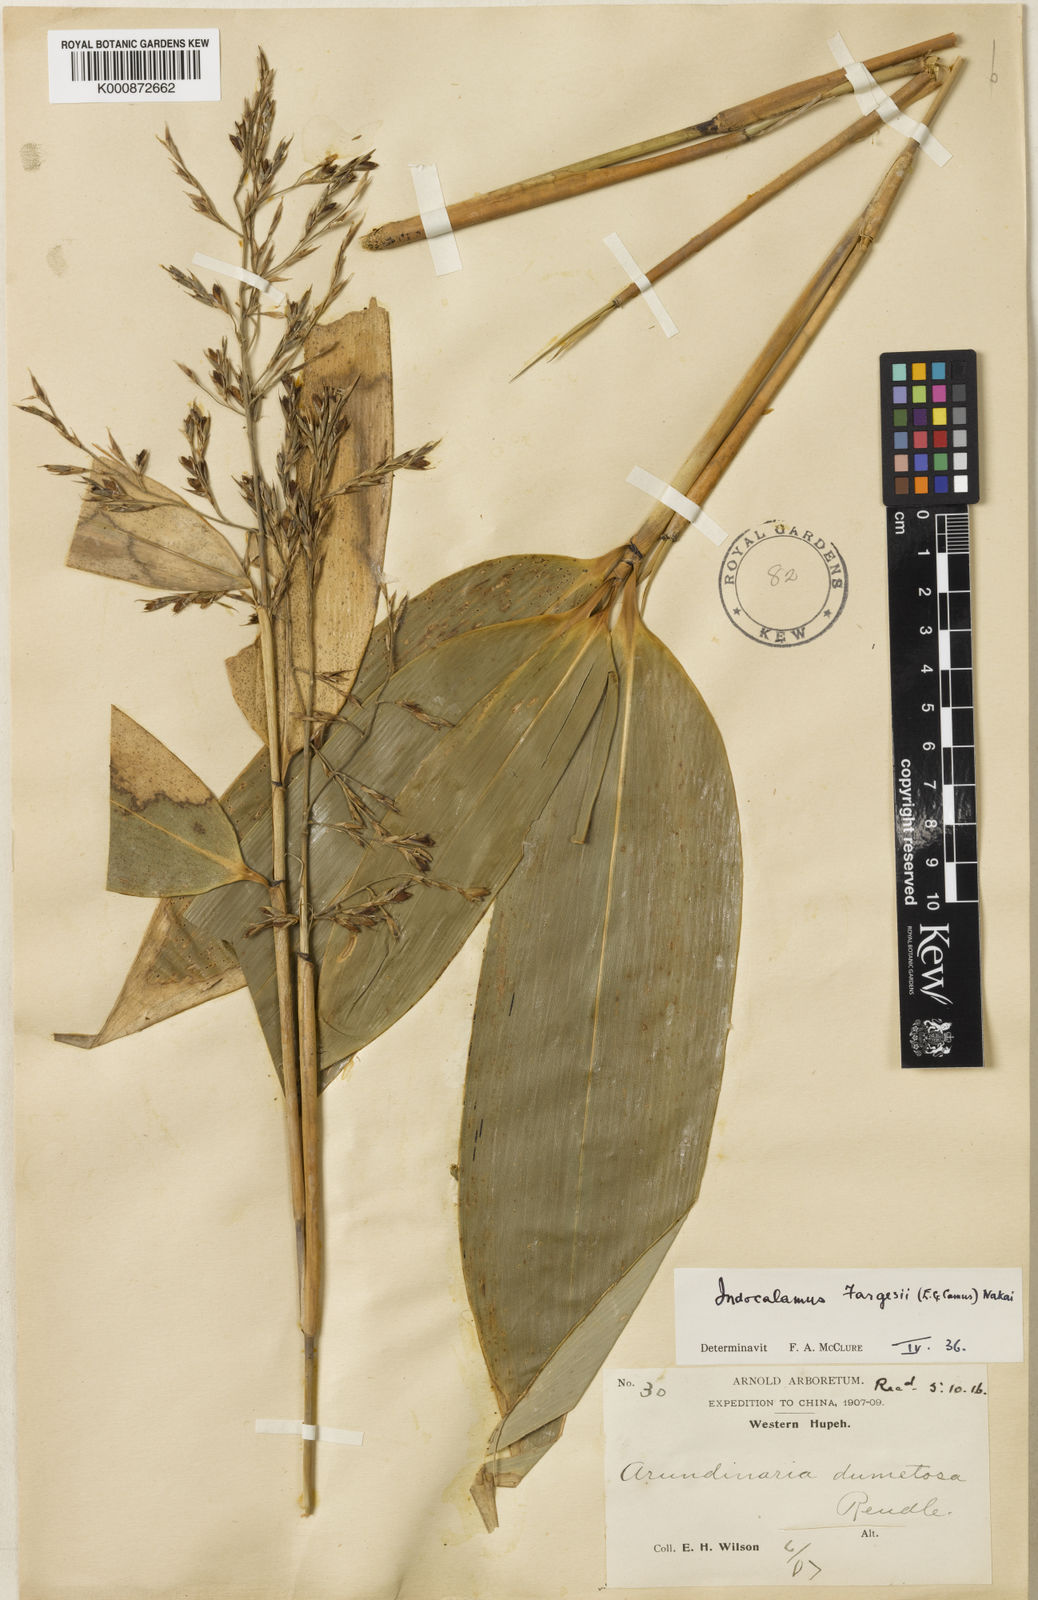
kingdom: Plantae
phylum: Tracheophyta
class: Liliopsida
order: Poales
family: Poaceae
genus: Bashania
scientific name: Bashania fargesii
